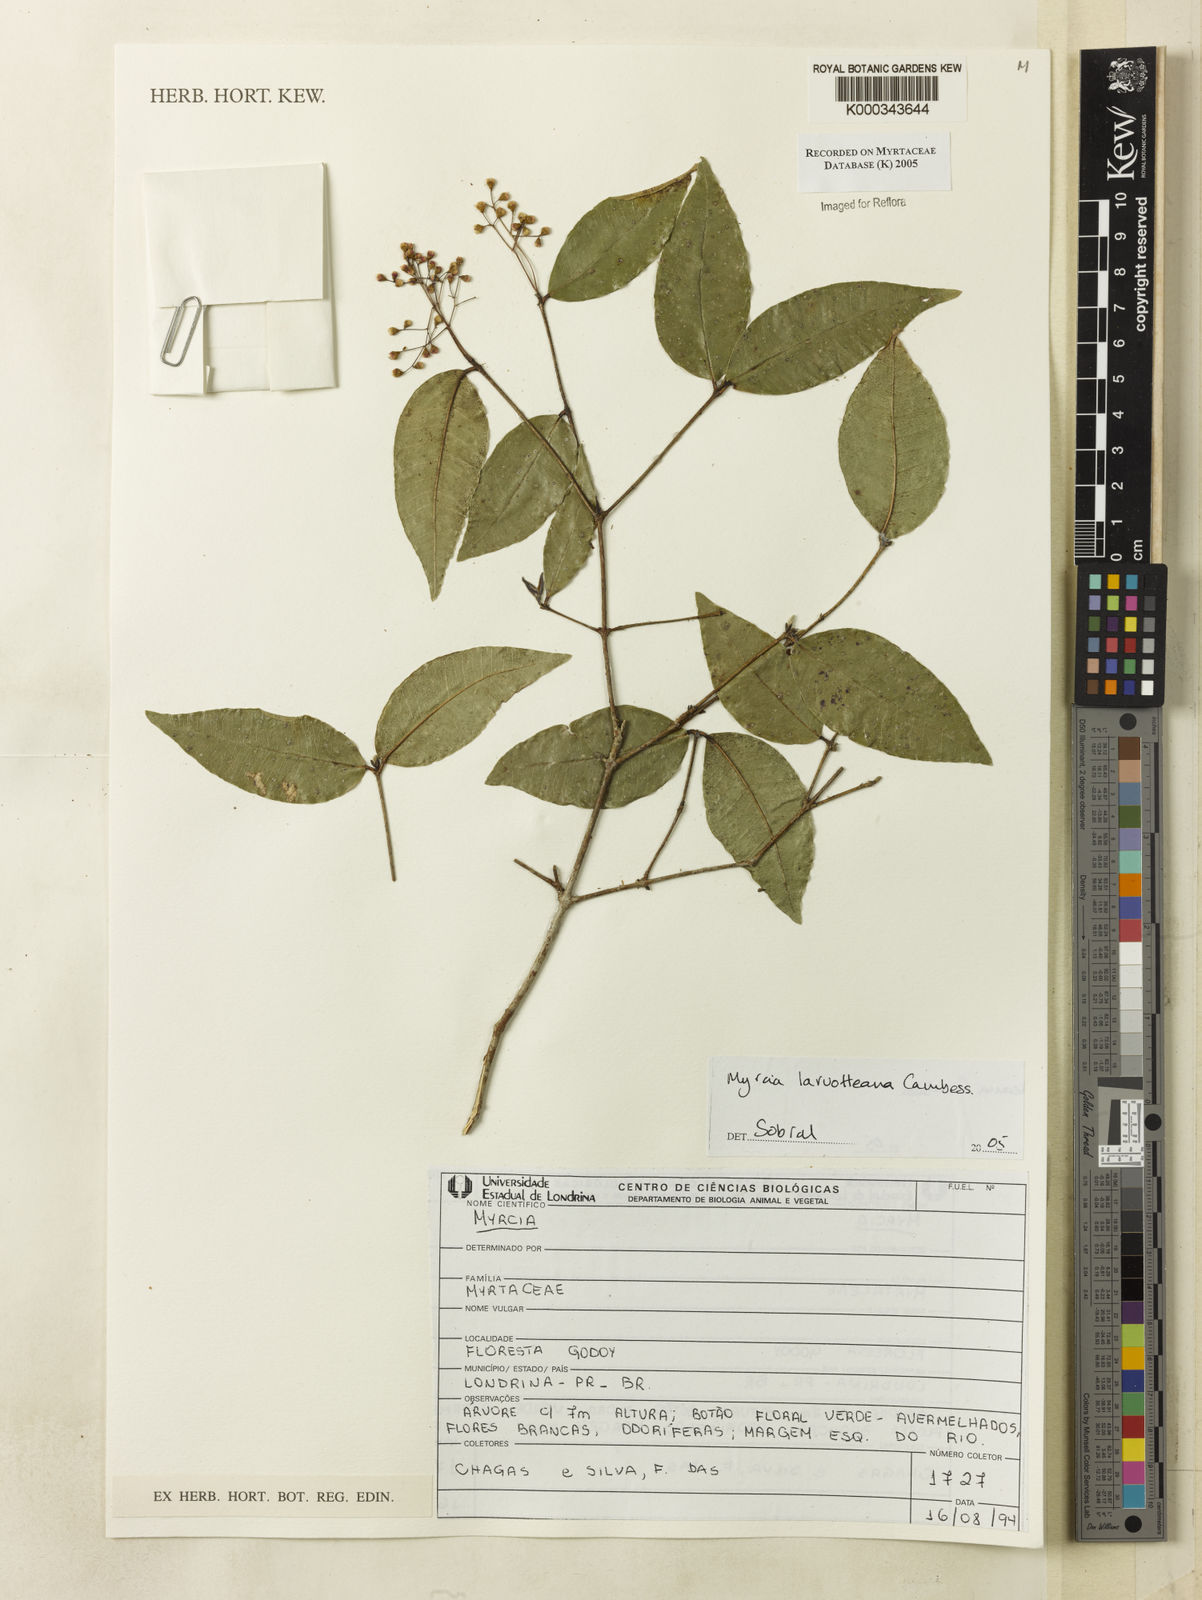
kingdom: Plantae
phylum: Tracheophyta
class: Magnoliopsida
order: Myrtales
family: Myrtaceae
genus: Myrcia
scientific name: Myrcia laruotteana
